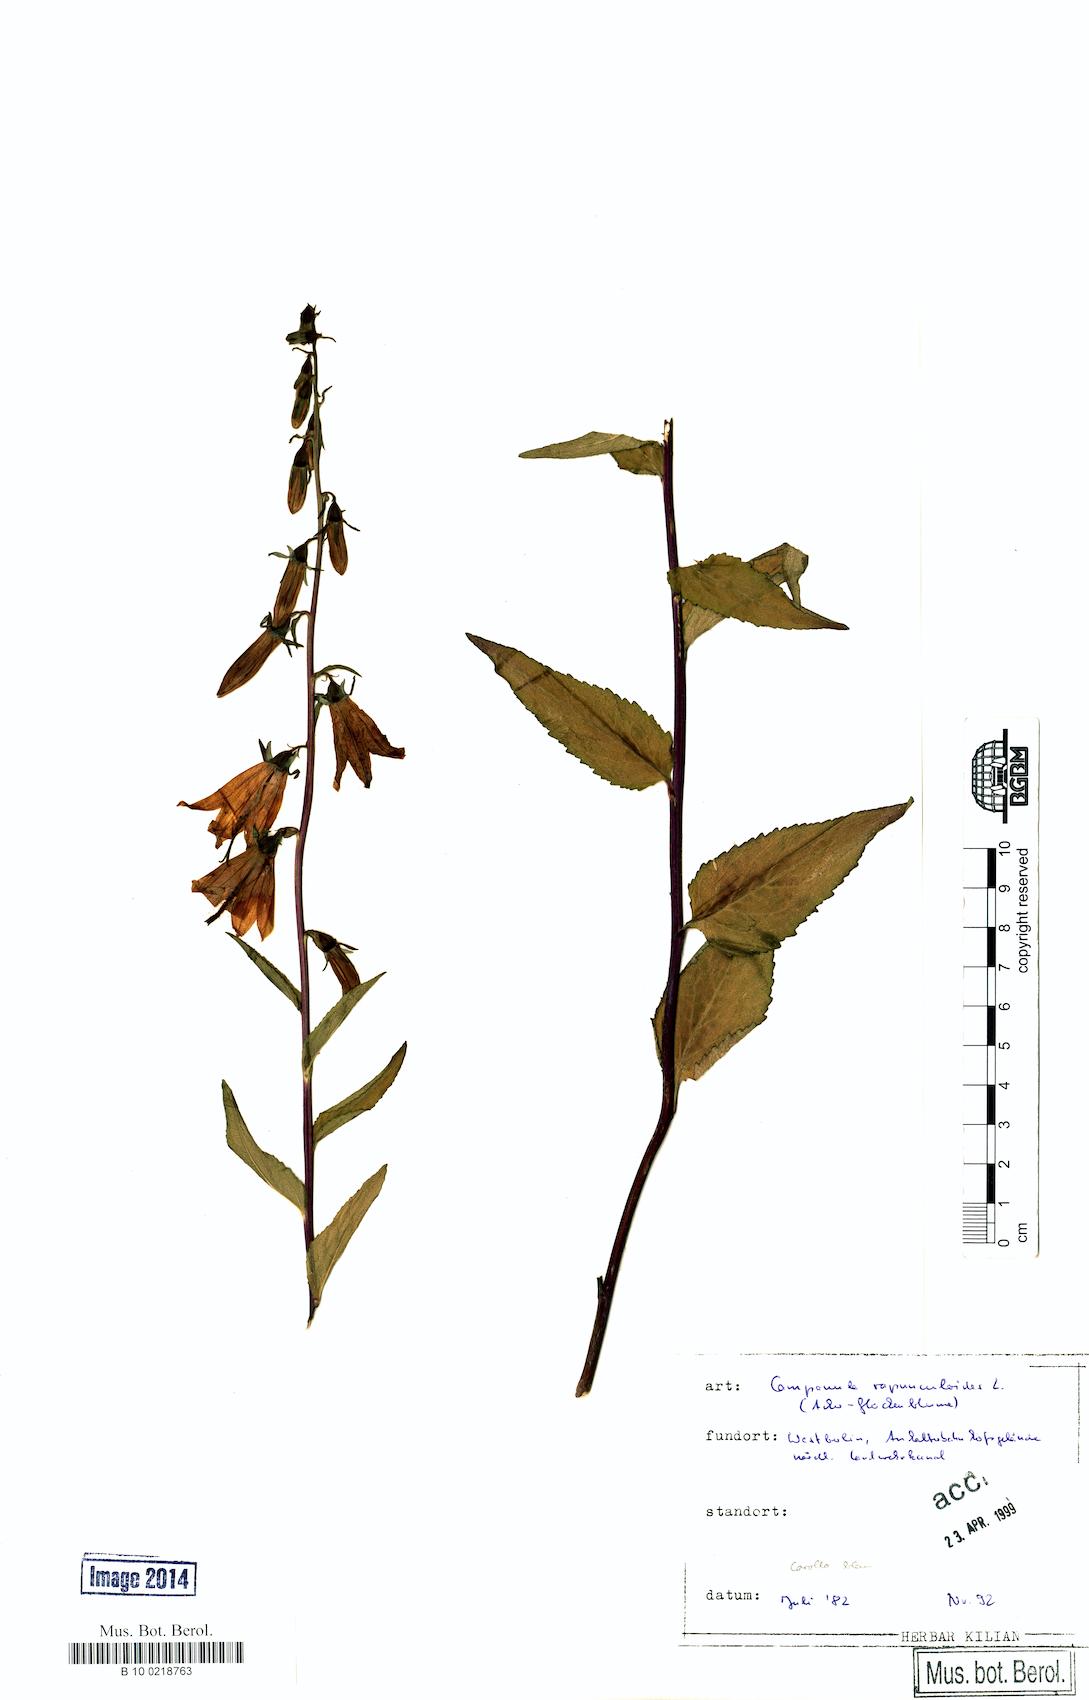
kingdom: Plantae
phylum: Tracheophyta
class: Magnoliopsida
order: Asterales
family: Campanulaceae
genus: Campanula
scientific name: Campanula rapunculoides
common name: Creeping bellflower
